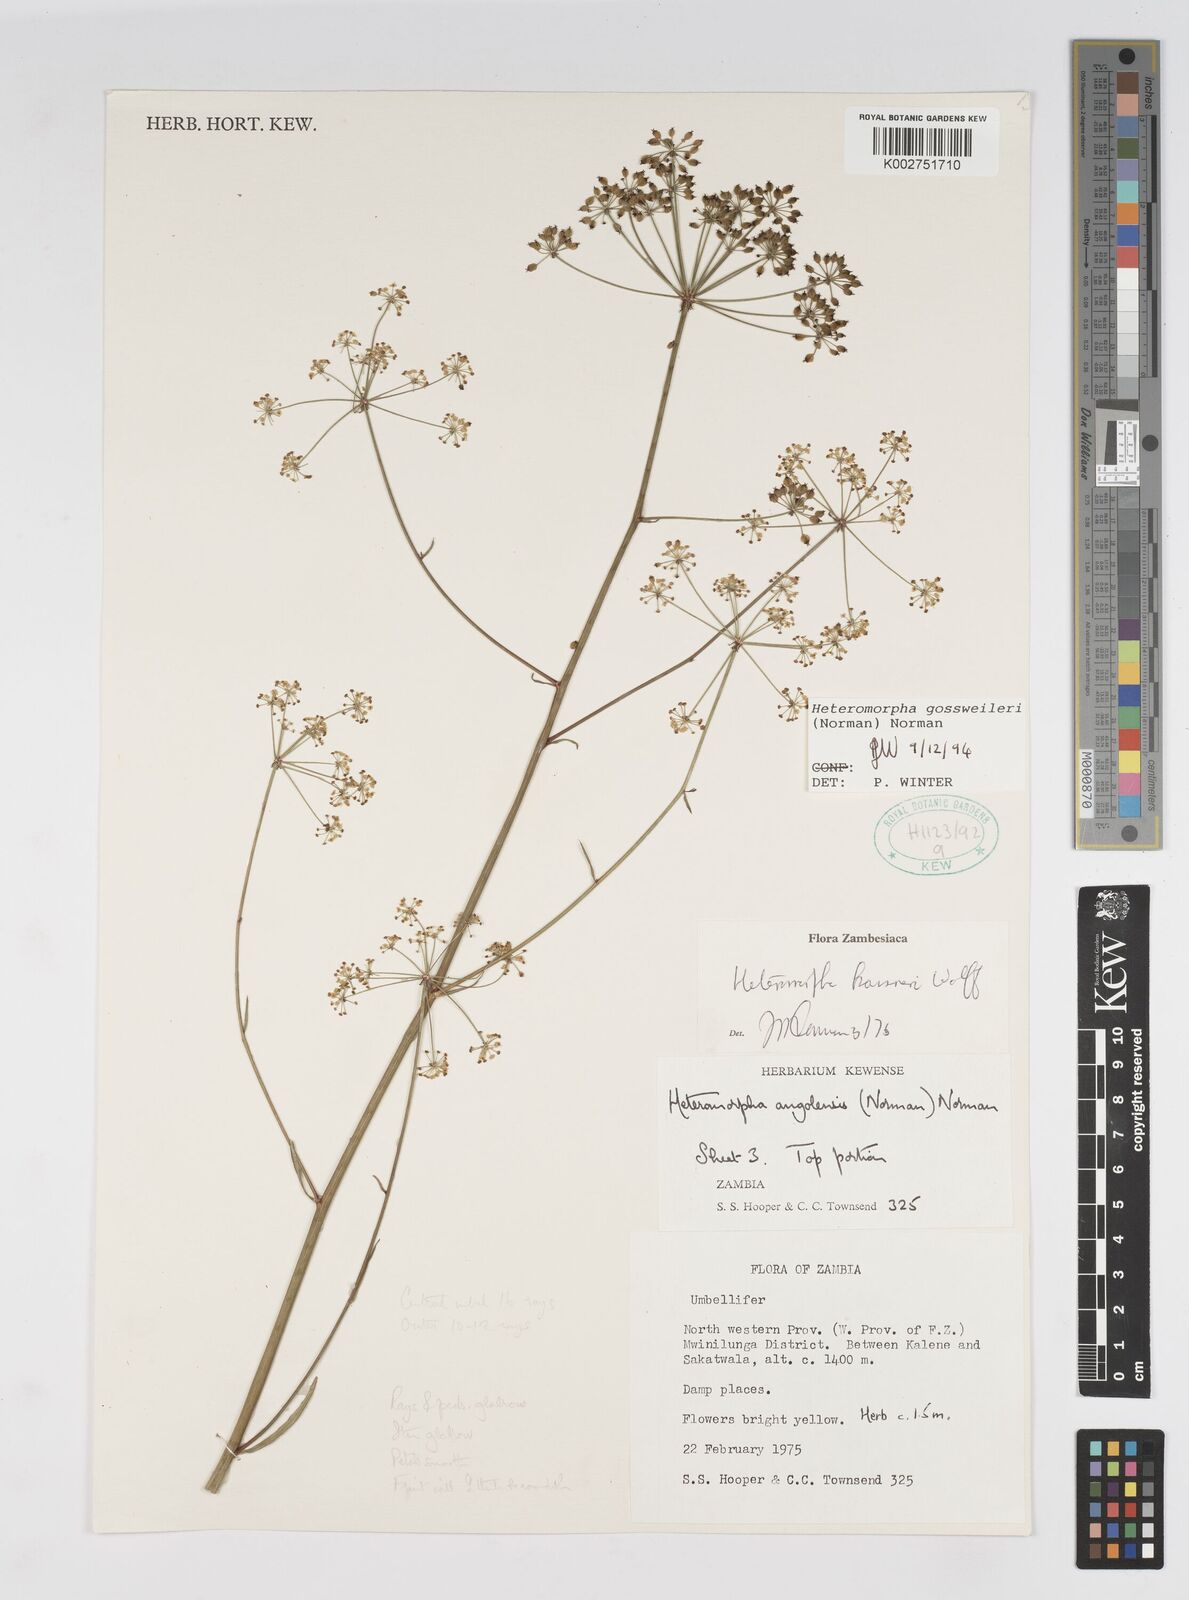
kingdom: Plantae
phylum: Tracheophyta
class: Magnoliopsida
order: Apiales
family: Apiaceae
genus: Heteromorpha
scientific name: Heteromorpha gossweileri
